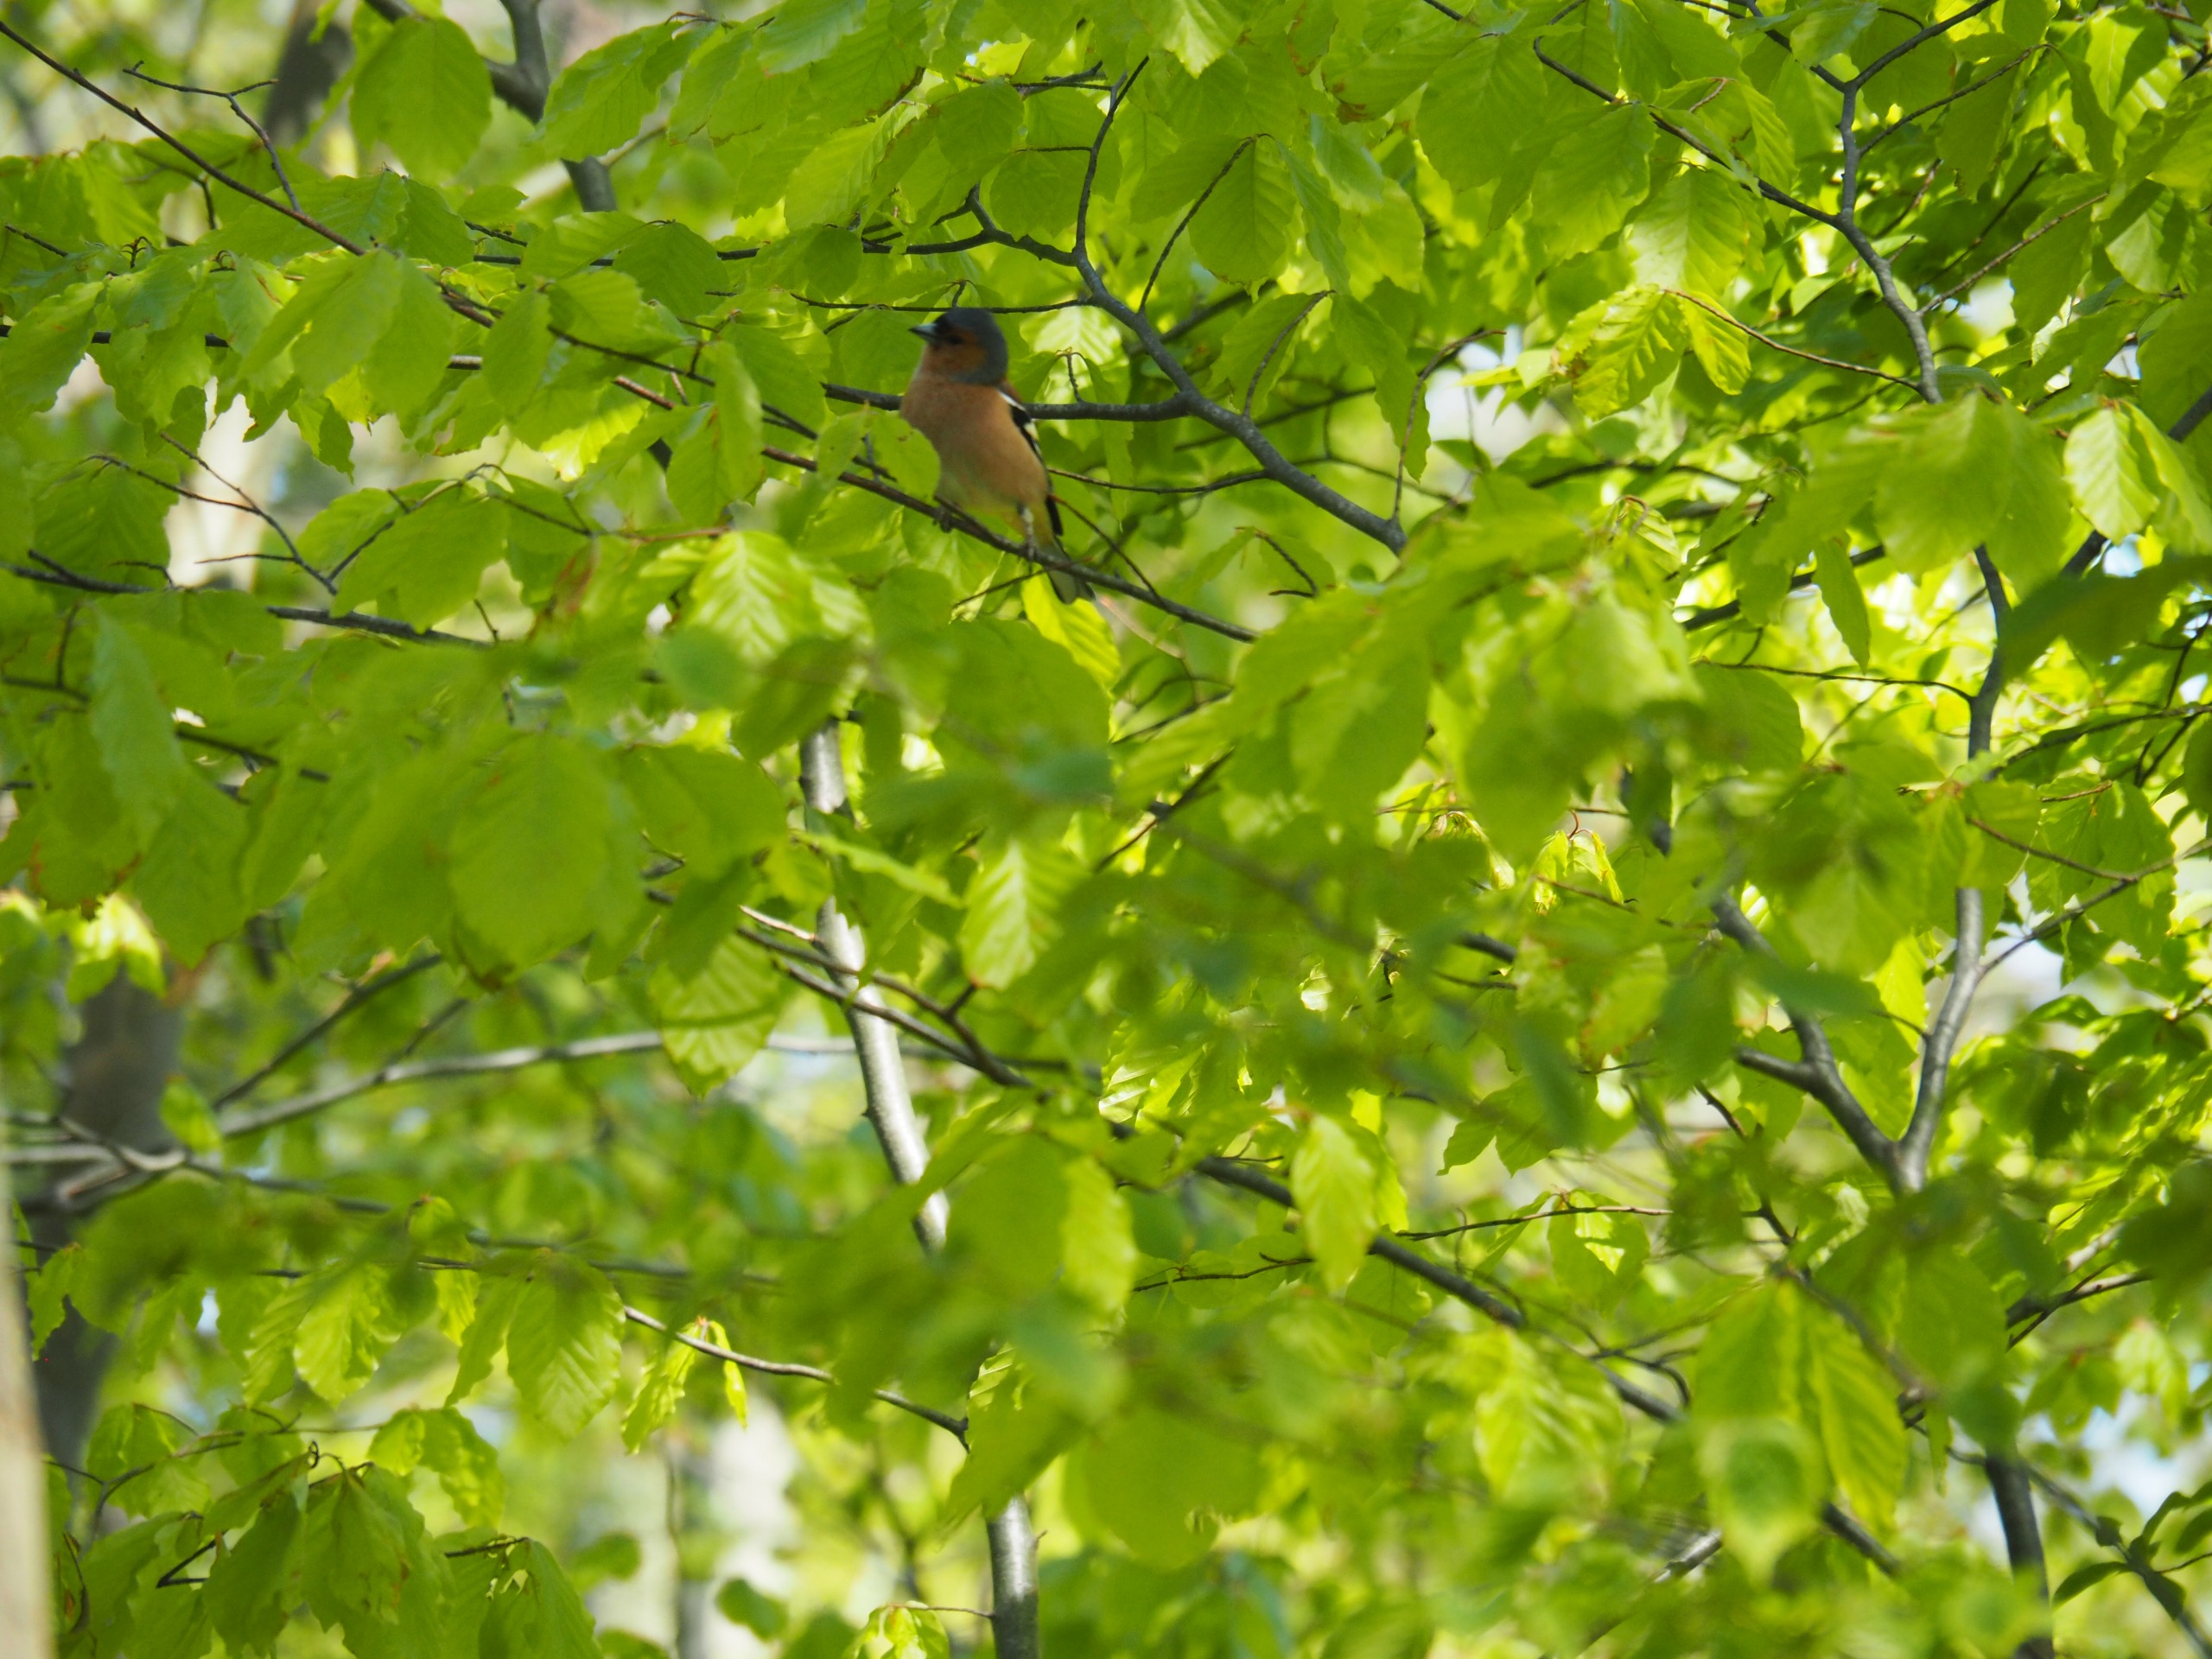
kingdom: Animalia
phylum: Chordata
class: Aves
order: Passeriformes
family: Fringillidae
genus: Fringilla
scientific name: Fringilla coelebs
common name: Bogfinke
